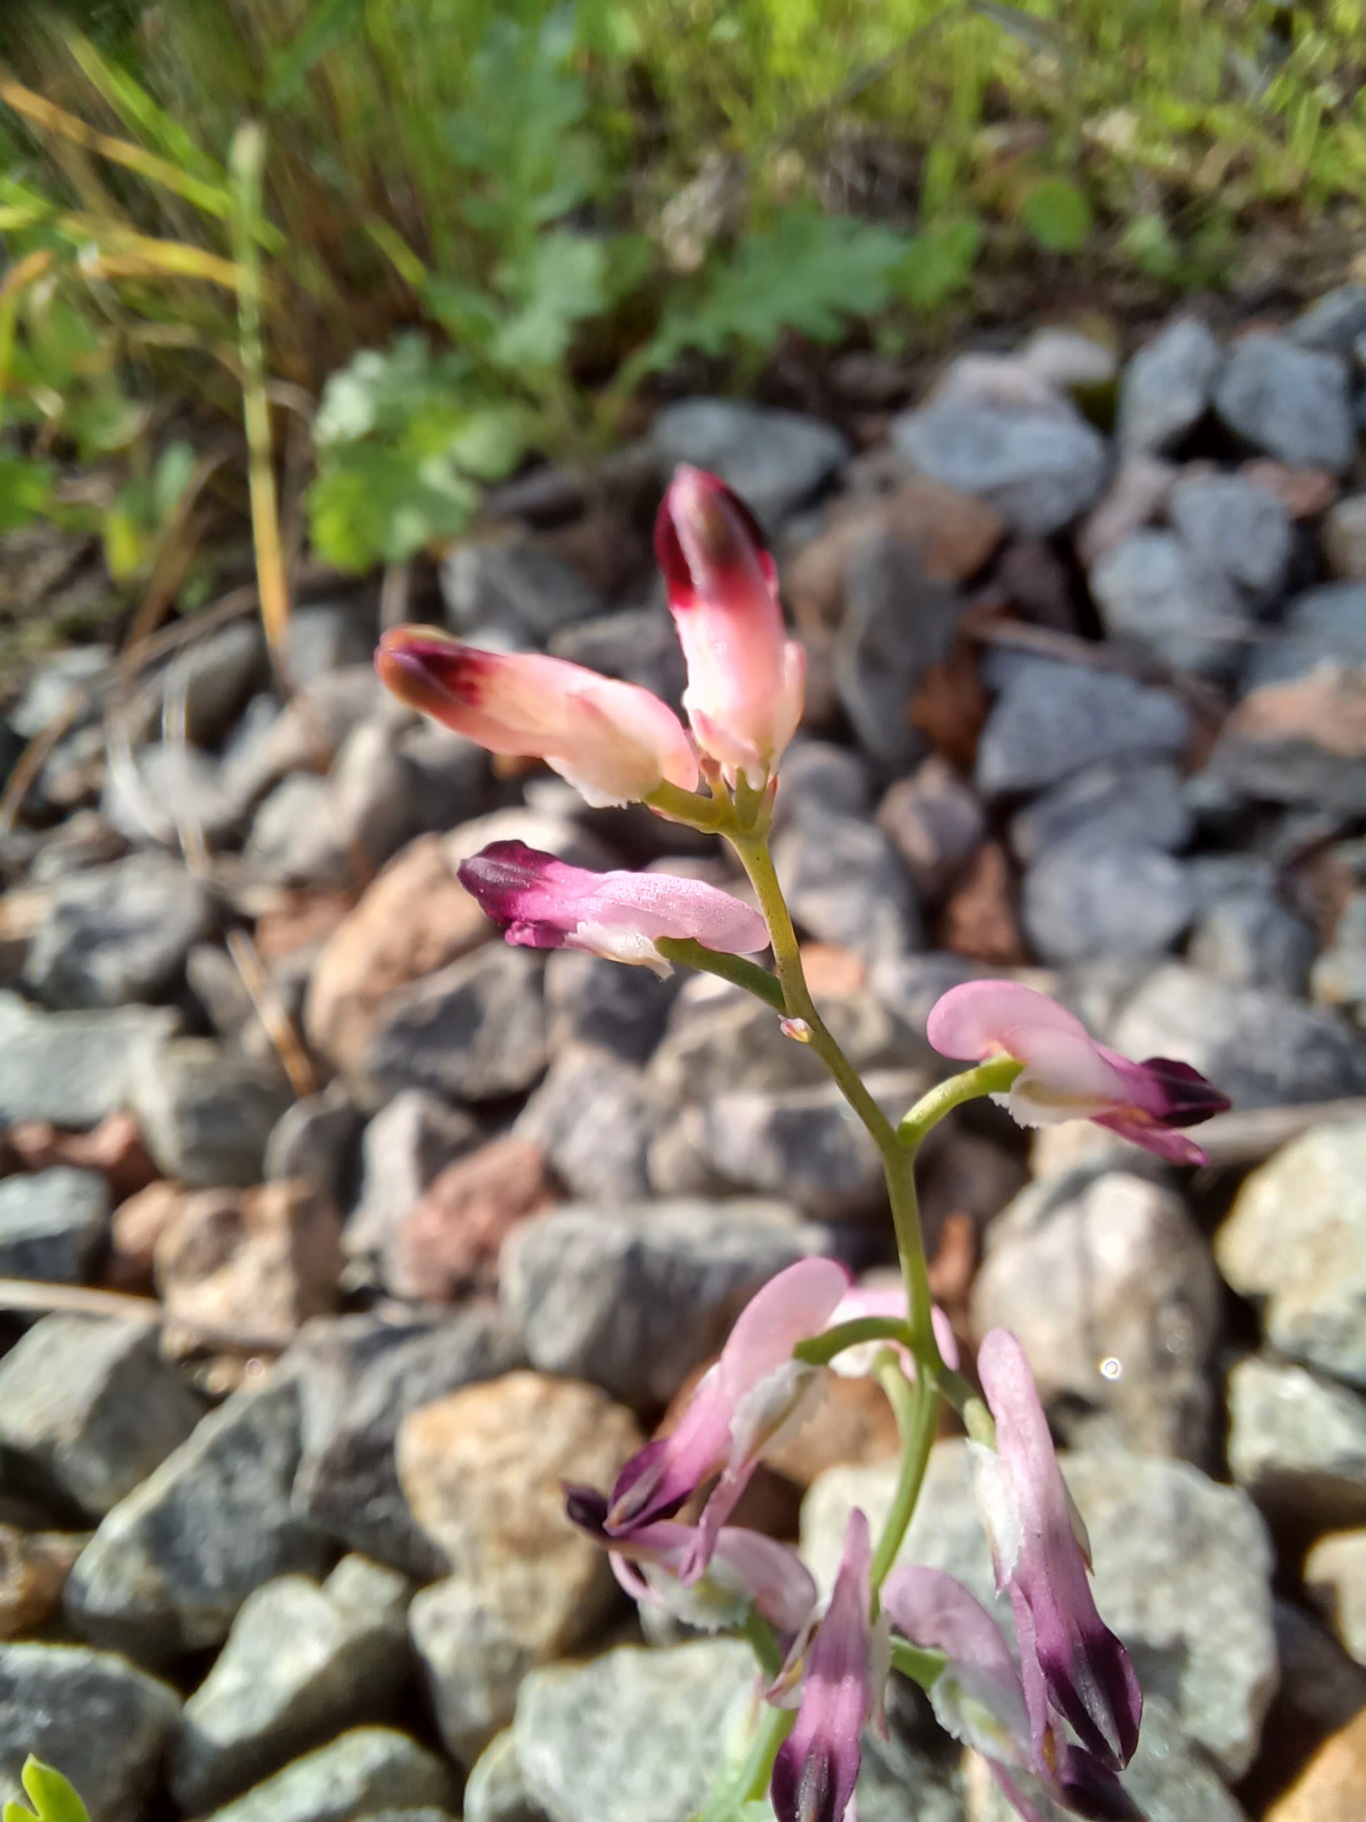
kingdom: Plantae
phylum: Tracheophyta
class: Magnoliopsida
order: Ranunculales
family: Papaveraceae
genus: Fumaria
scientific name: Fumaria muralis
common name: Mur-jordrøg
